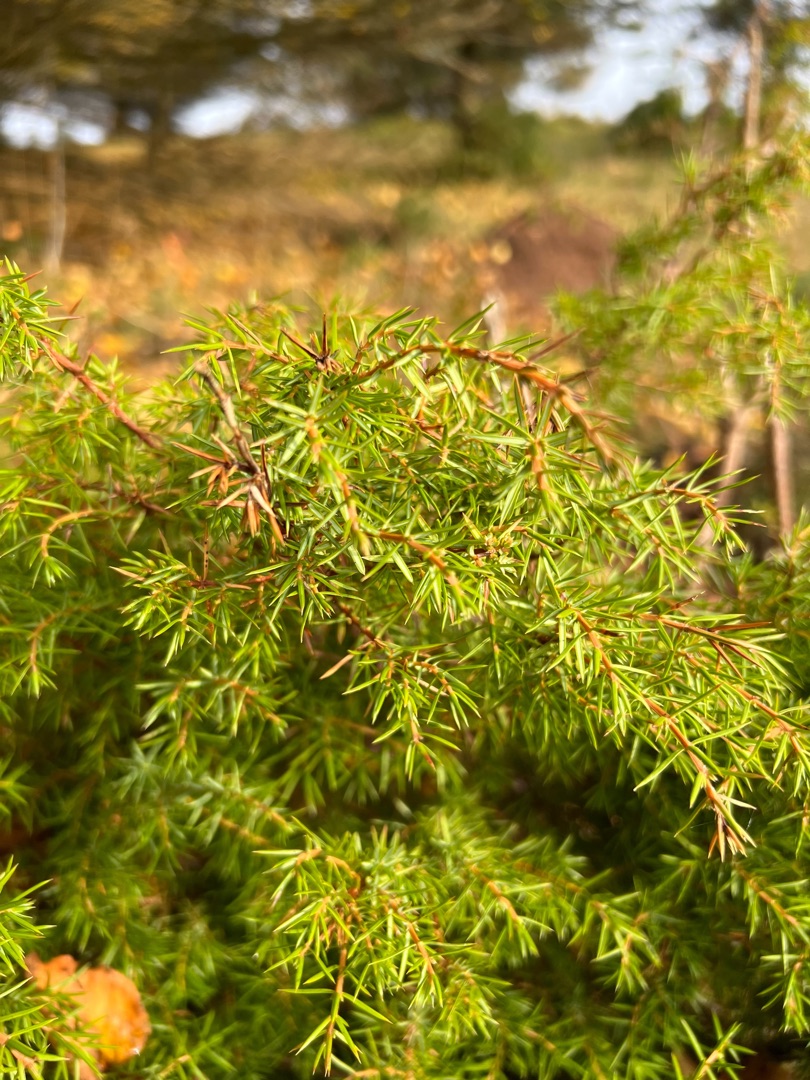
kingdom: Plantae
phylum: Tracheophyta
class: Pinopsida
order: Pinales
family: Cupressaceae
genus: Juniperus
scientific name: Juniperus communis
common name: Almindelig ene
